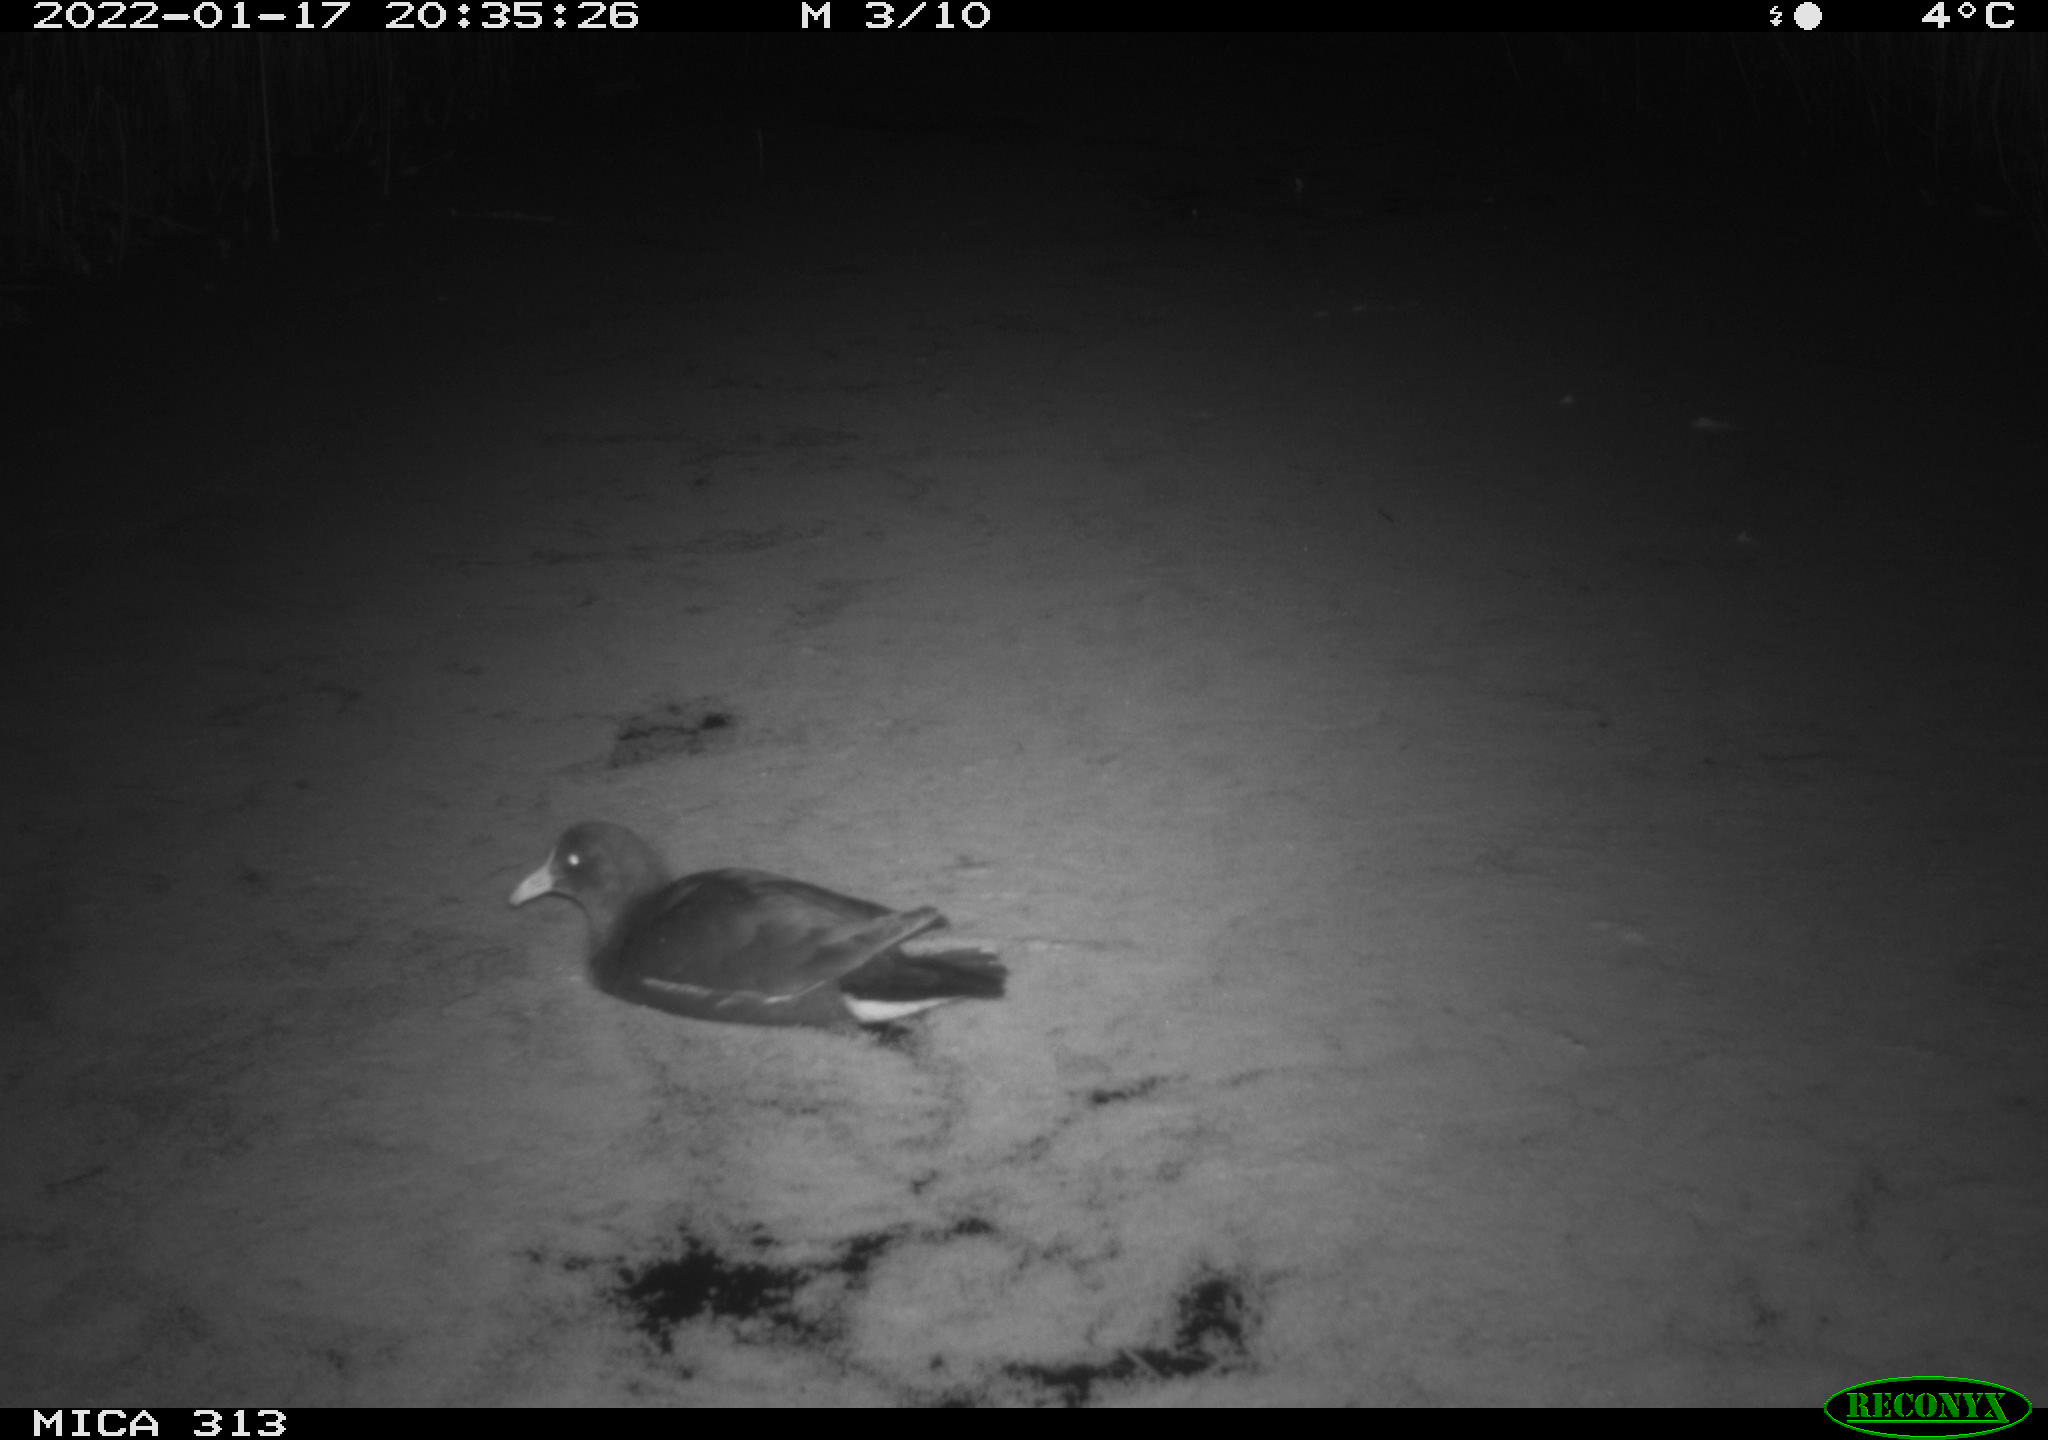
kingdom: Animalia
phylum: Chordata
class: Aves
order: Anseriformes
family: Anatidae
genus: Anas
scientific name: Anas
